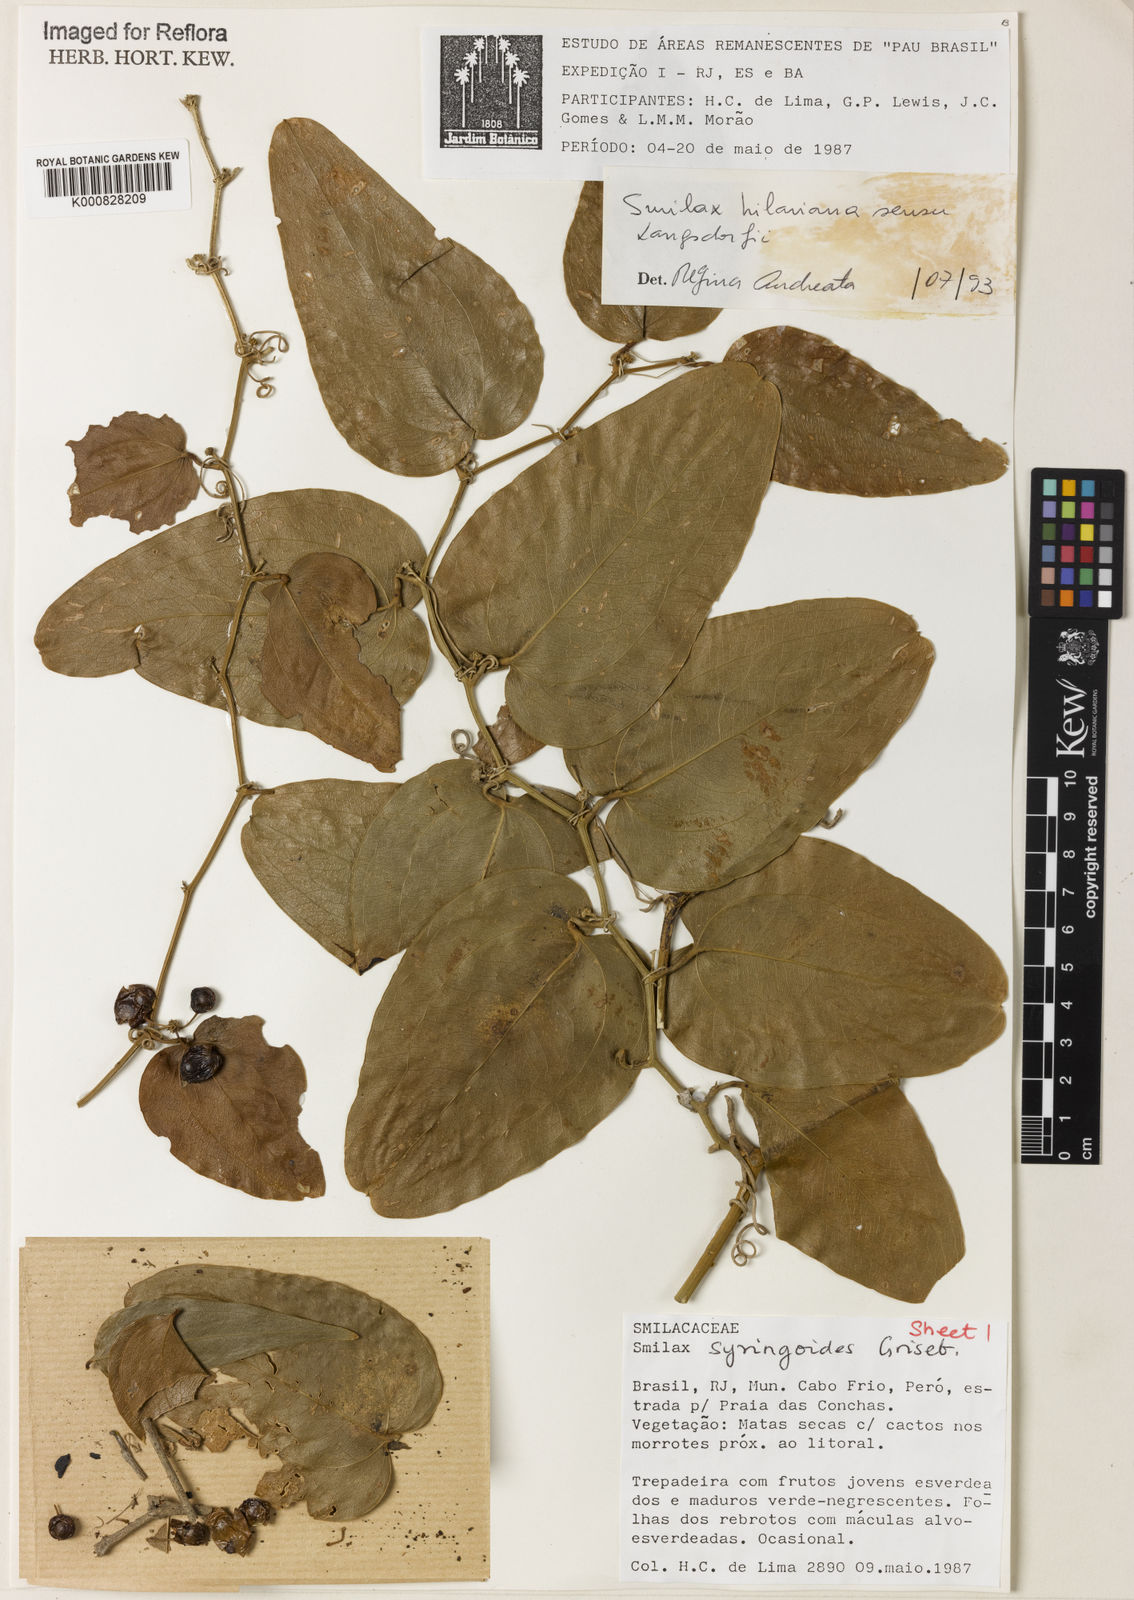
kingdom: Plantae
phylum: Tracheophyta
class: Liliopsida
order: Liliales
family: Smilacaceae
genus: Smilax
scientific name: Smilax hilariana
